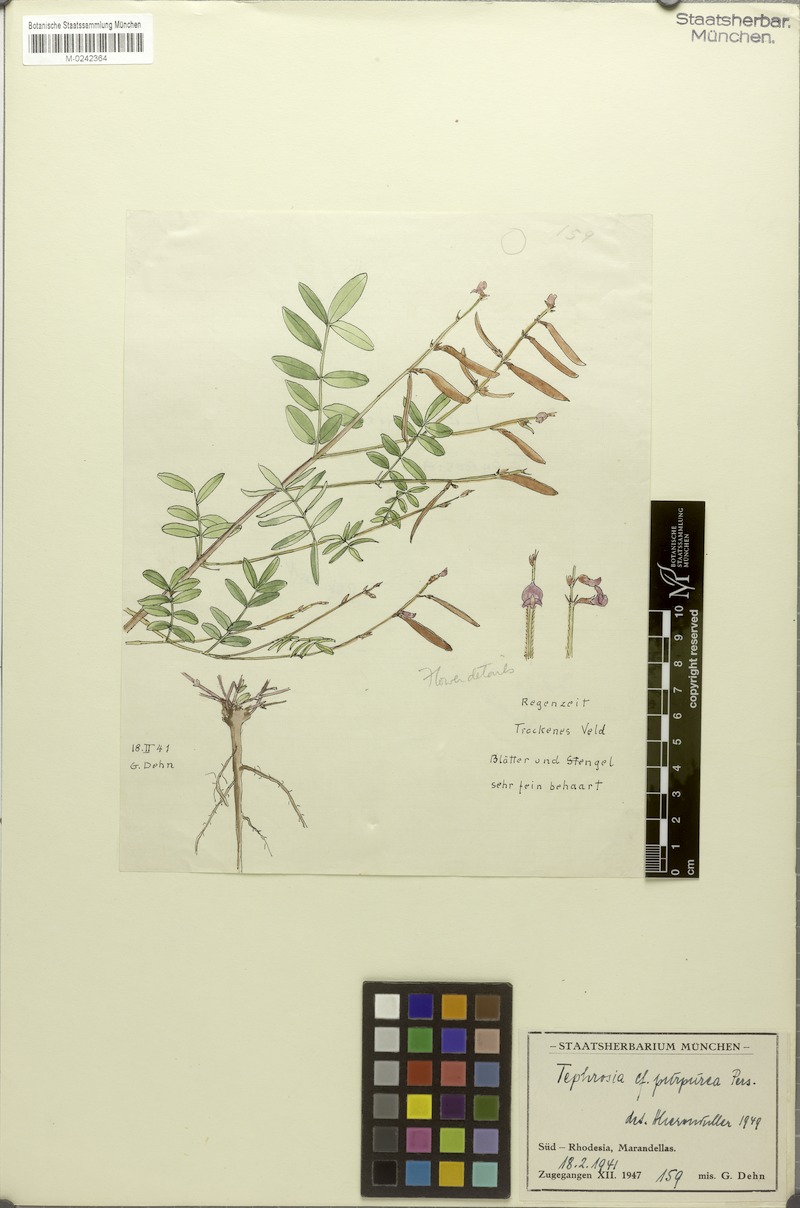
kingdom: Plantae
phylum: Tracheophyta
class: Magnoliopsida
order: Fabales
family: Fabaceae
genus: Tephrosia
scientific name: Tephrosia purpurea
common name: Fishpoison
